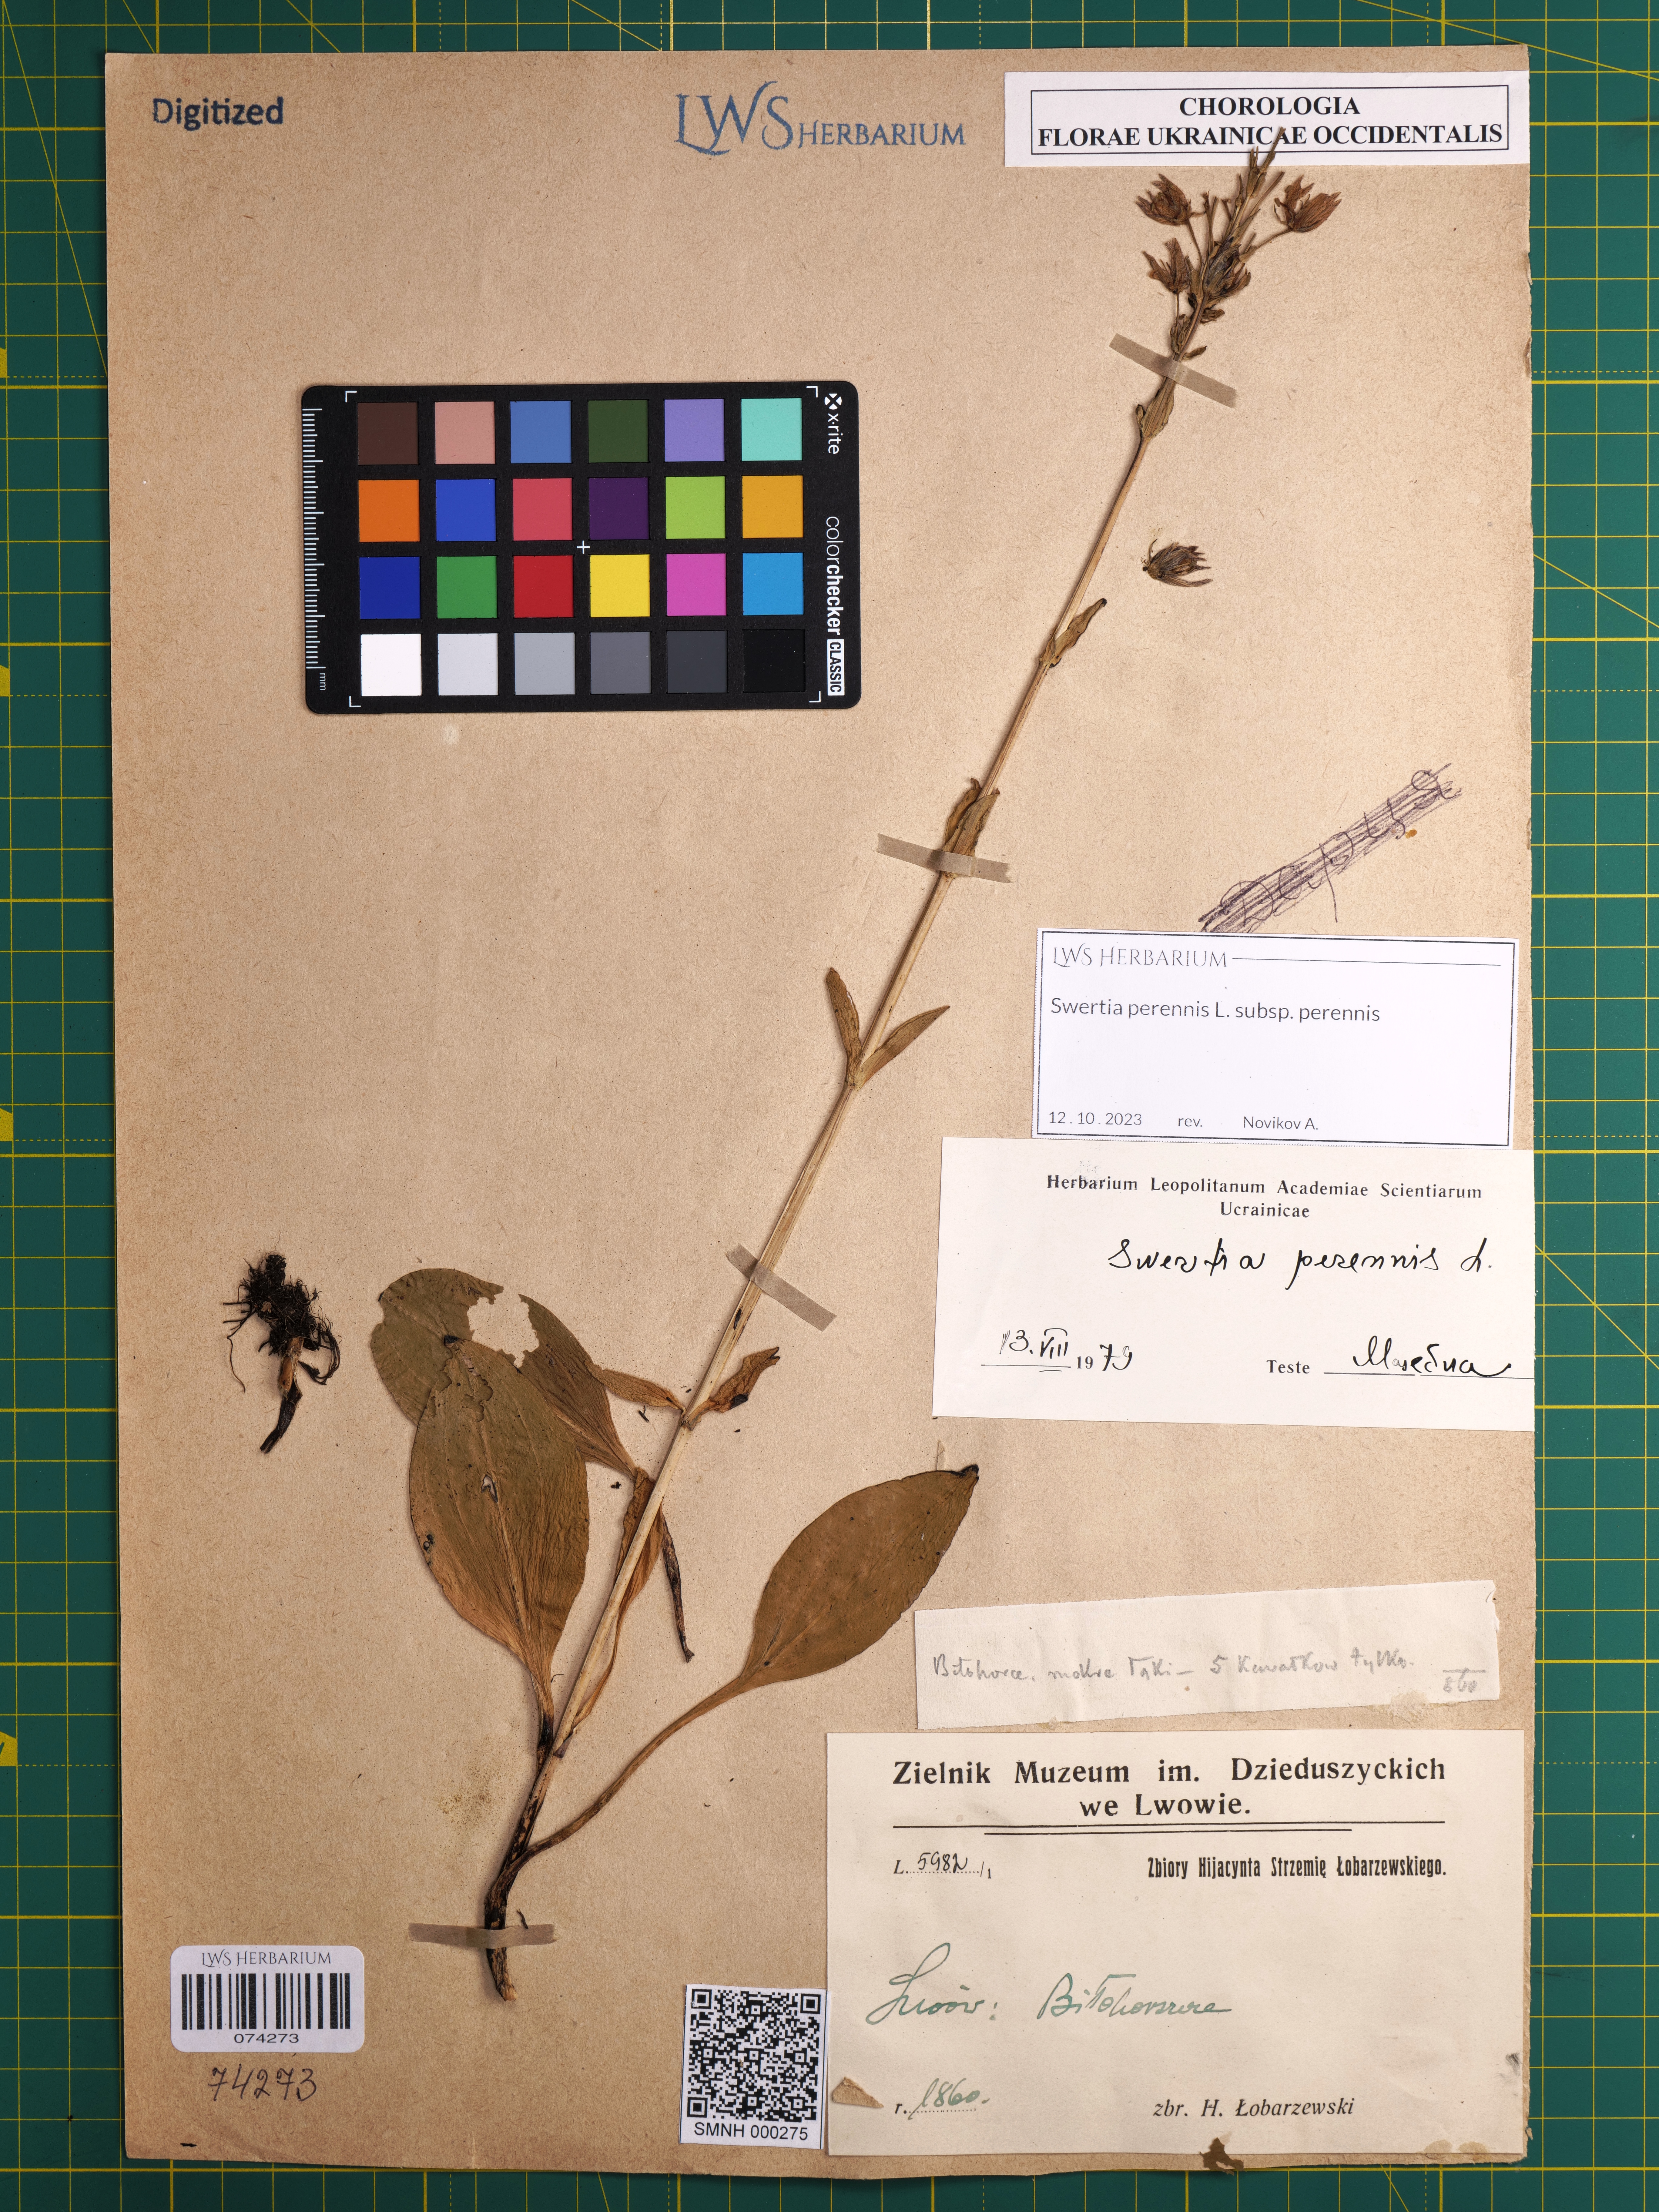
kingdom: Plantae
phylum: Tracheophyta
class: Magnoliopsida
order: Gentianales
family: Gentianaceae
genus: Swertia
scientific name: Swertia perennis
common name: Alpine bog swertia
